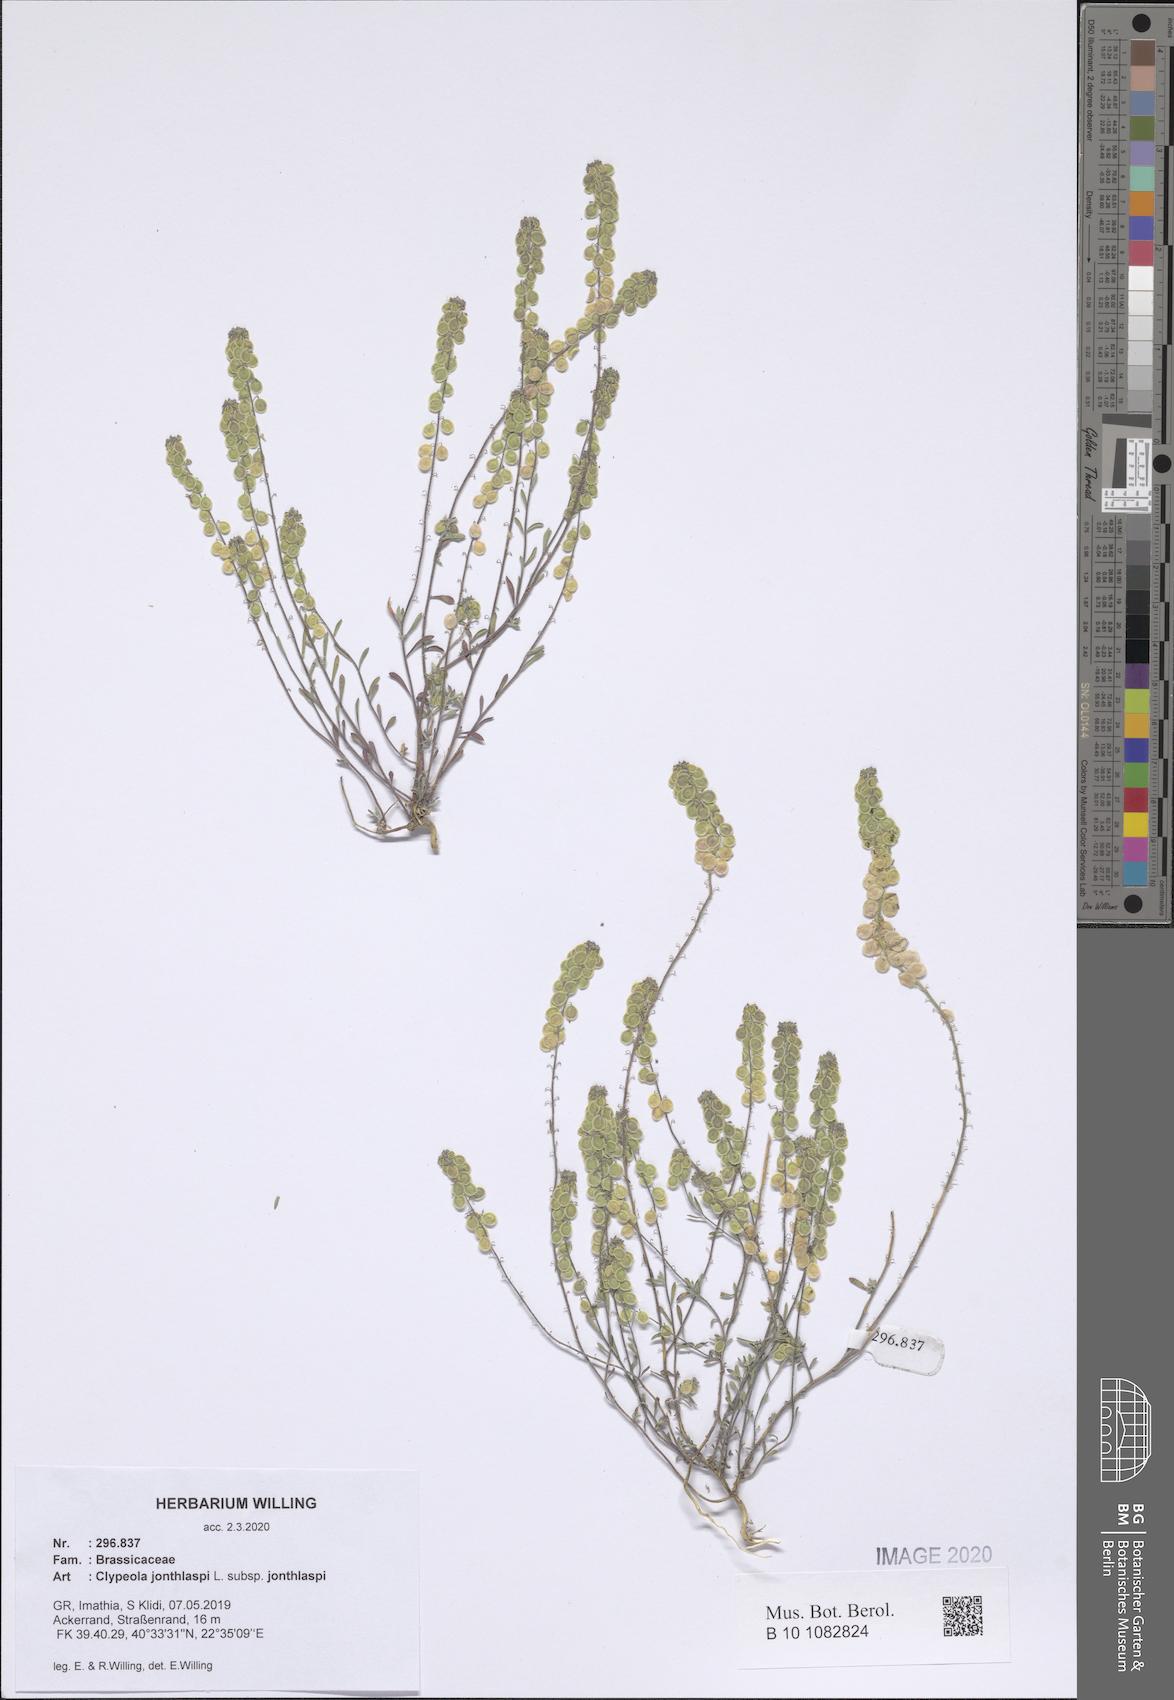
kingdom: Plantae
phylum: Tracheophyta
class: Magnoliopsida
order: Brassicales
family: Brassicaceae
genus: Clypeola
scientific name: Clypeola jonthlaspi
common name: Disk cress
